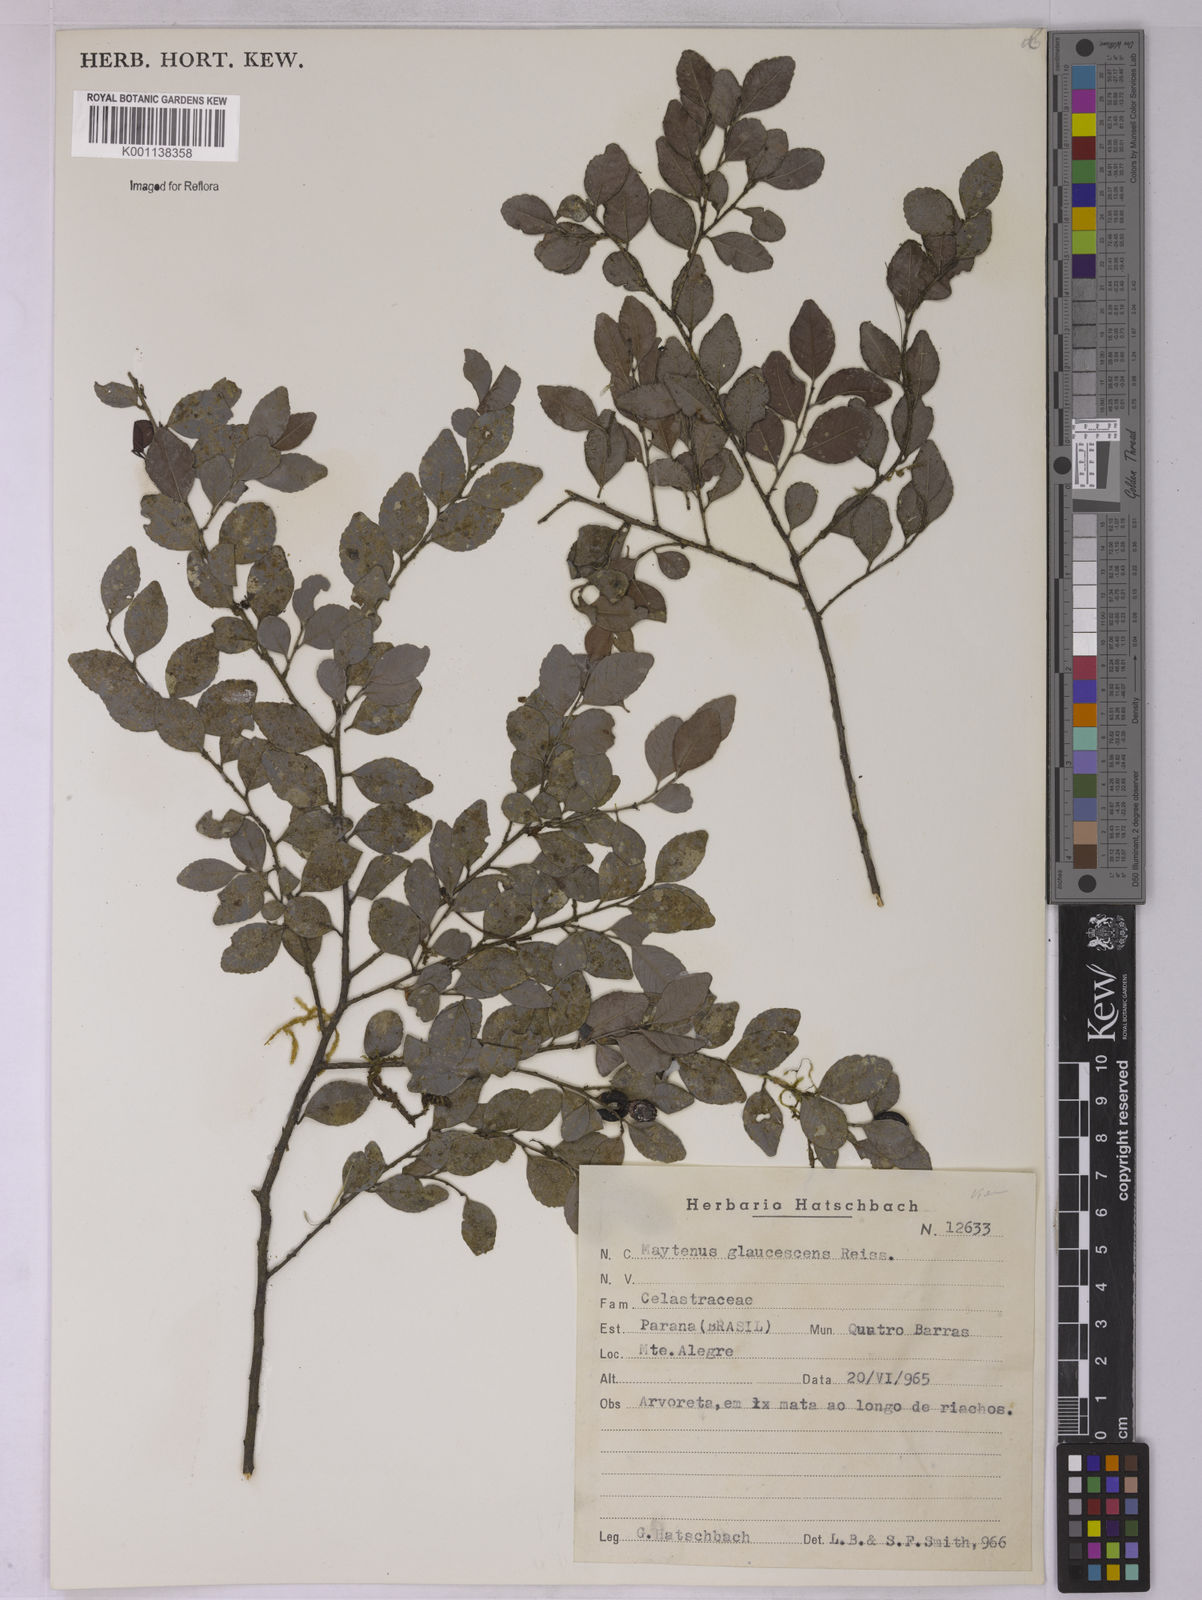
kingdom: Plantae
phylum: Tracheophyta
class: Magnoliopsida
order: Celastrales
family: Celastraceae
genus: Monteverdia
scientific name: Monteverdia glaucescens
